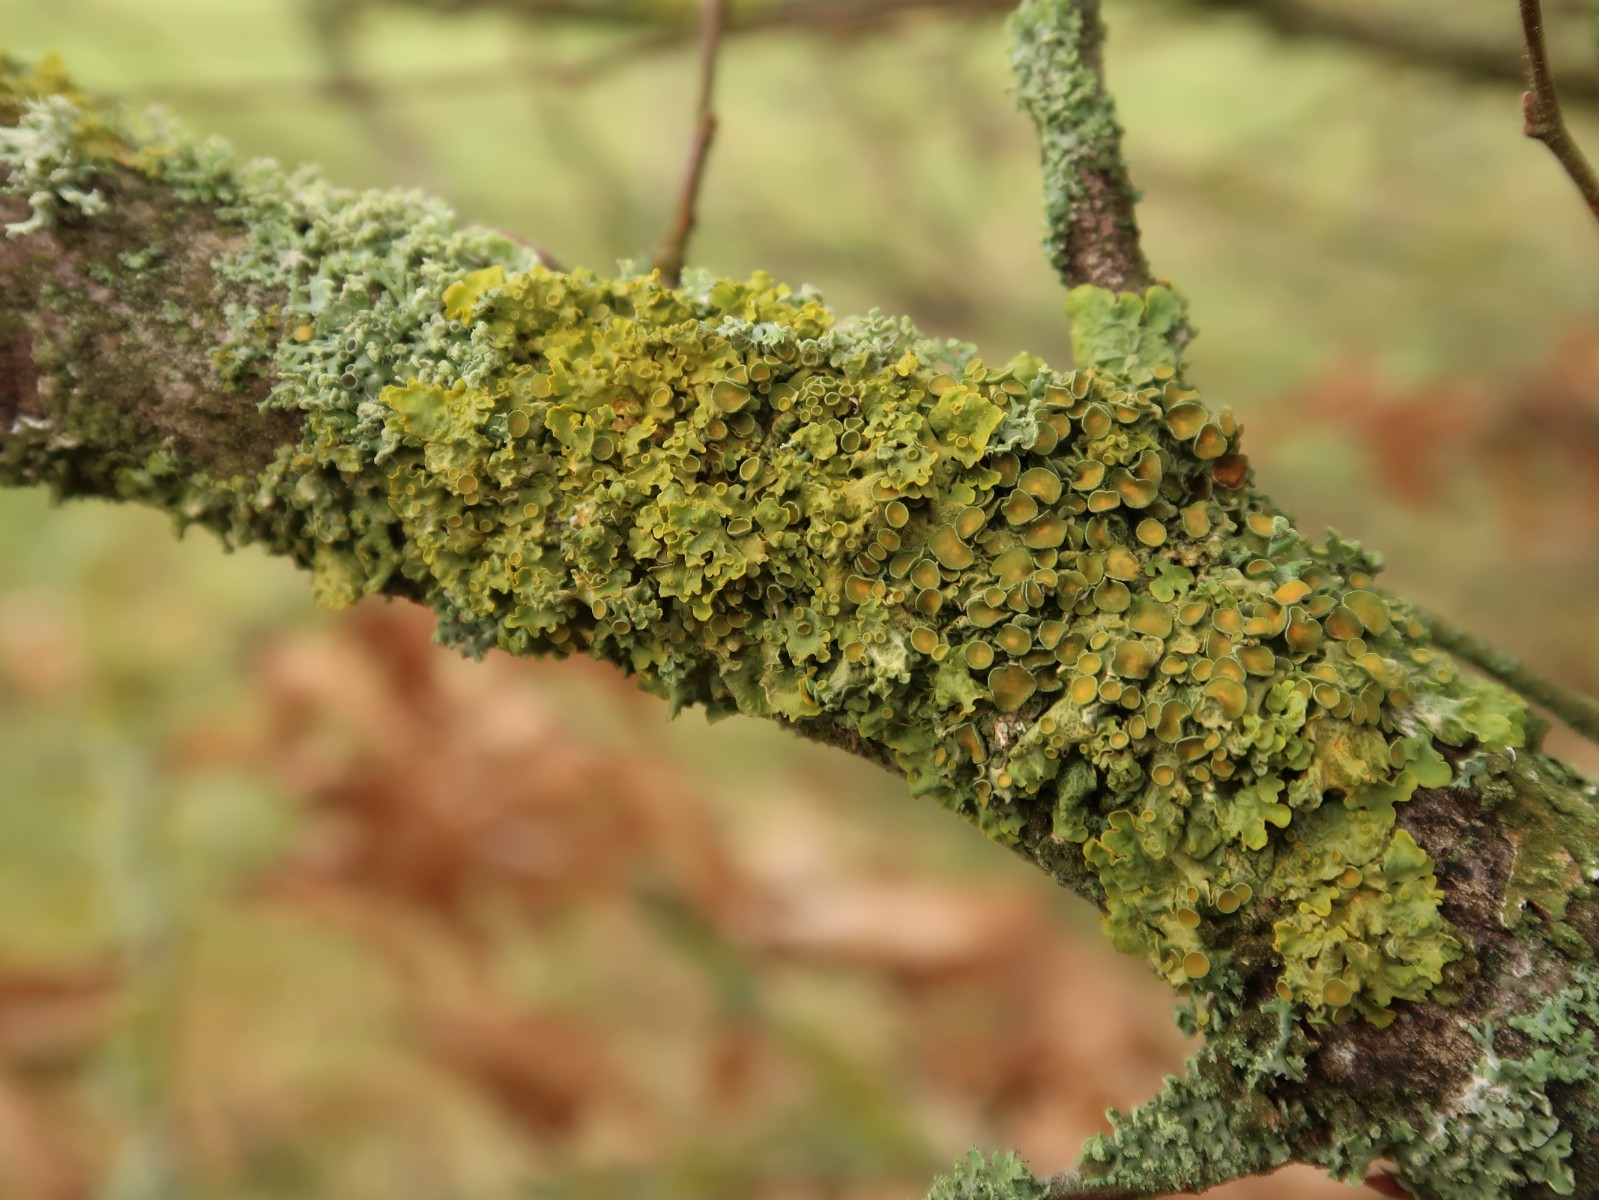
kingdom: Fungi
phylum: Ascomycota
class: Lecanoromycetes
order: Teloschistales
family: Teloschistaceae
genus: Xanthoria
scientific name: Xanthoria parietina
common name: almindelig væggelav
